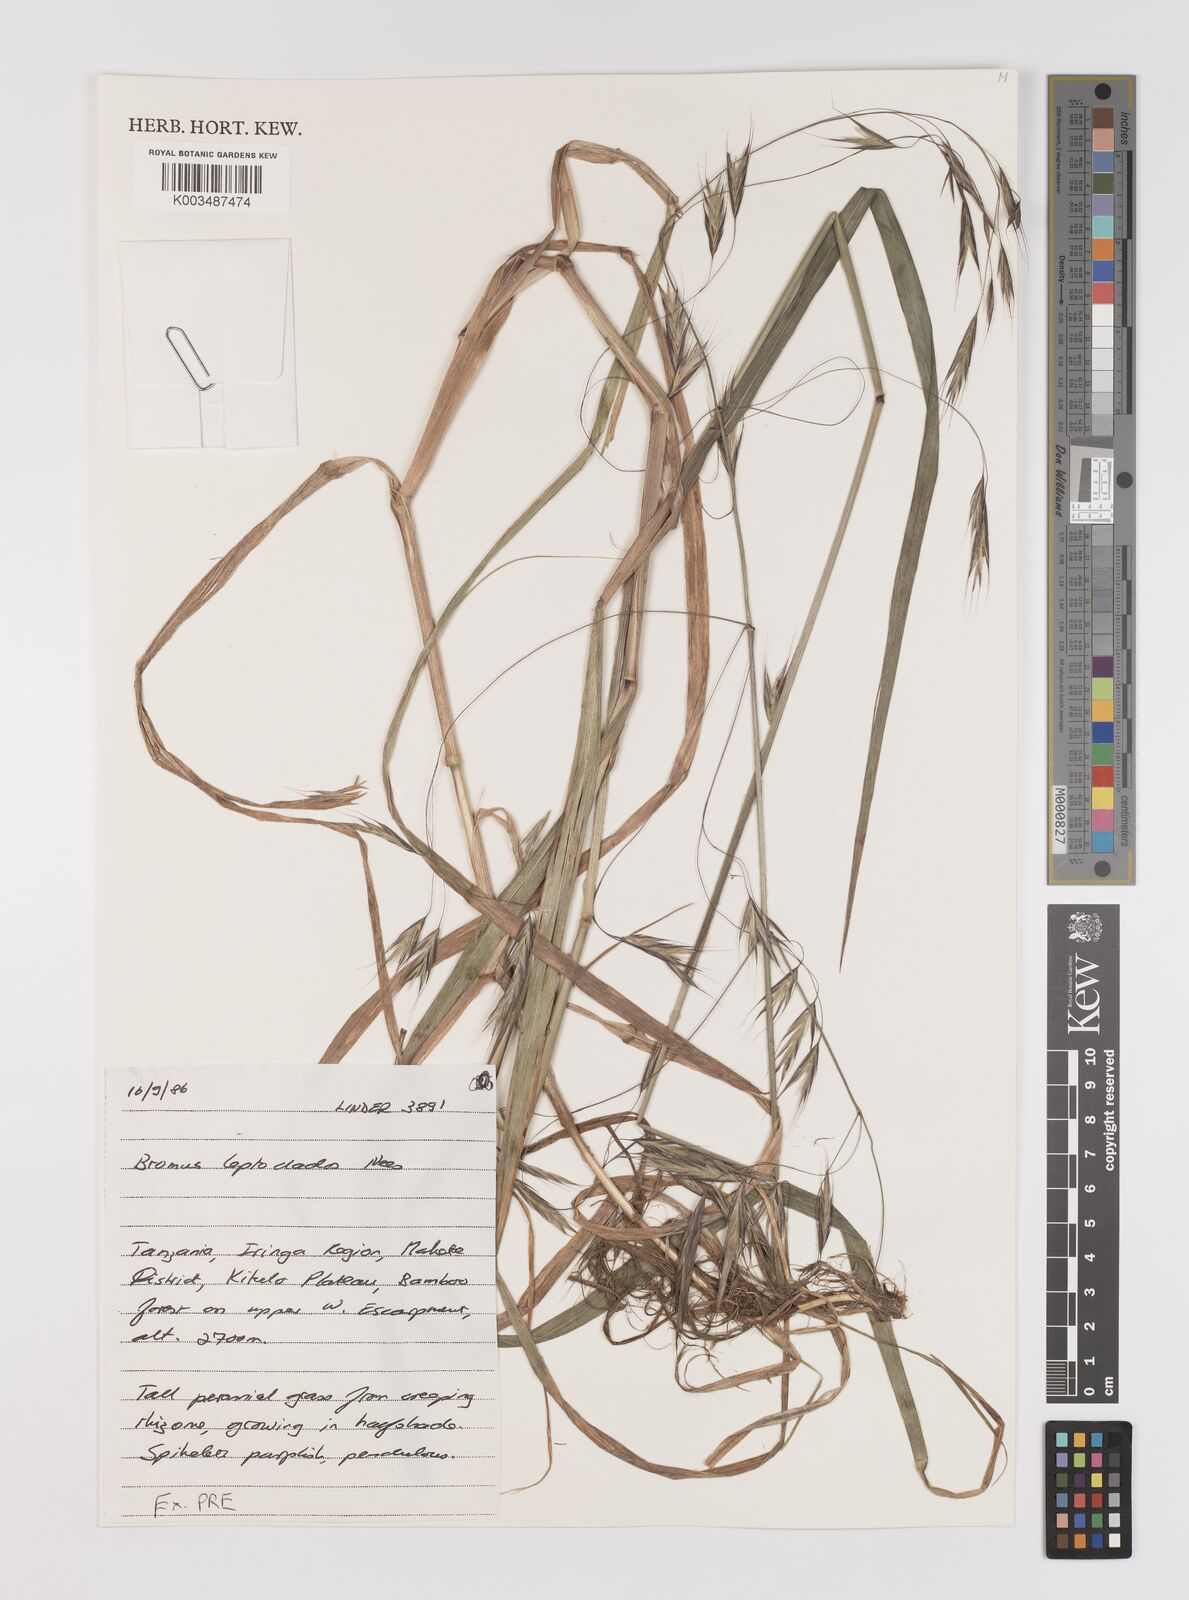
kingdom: Plantae
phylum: Tracheophyta
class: Liliopsida
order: Poales
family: Poaceae
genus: Bromus
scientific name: Bromus leptoclados
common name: Mountain bromegrass
